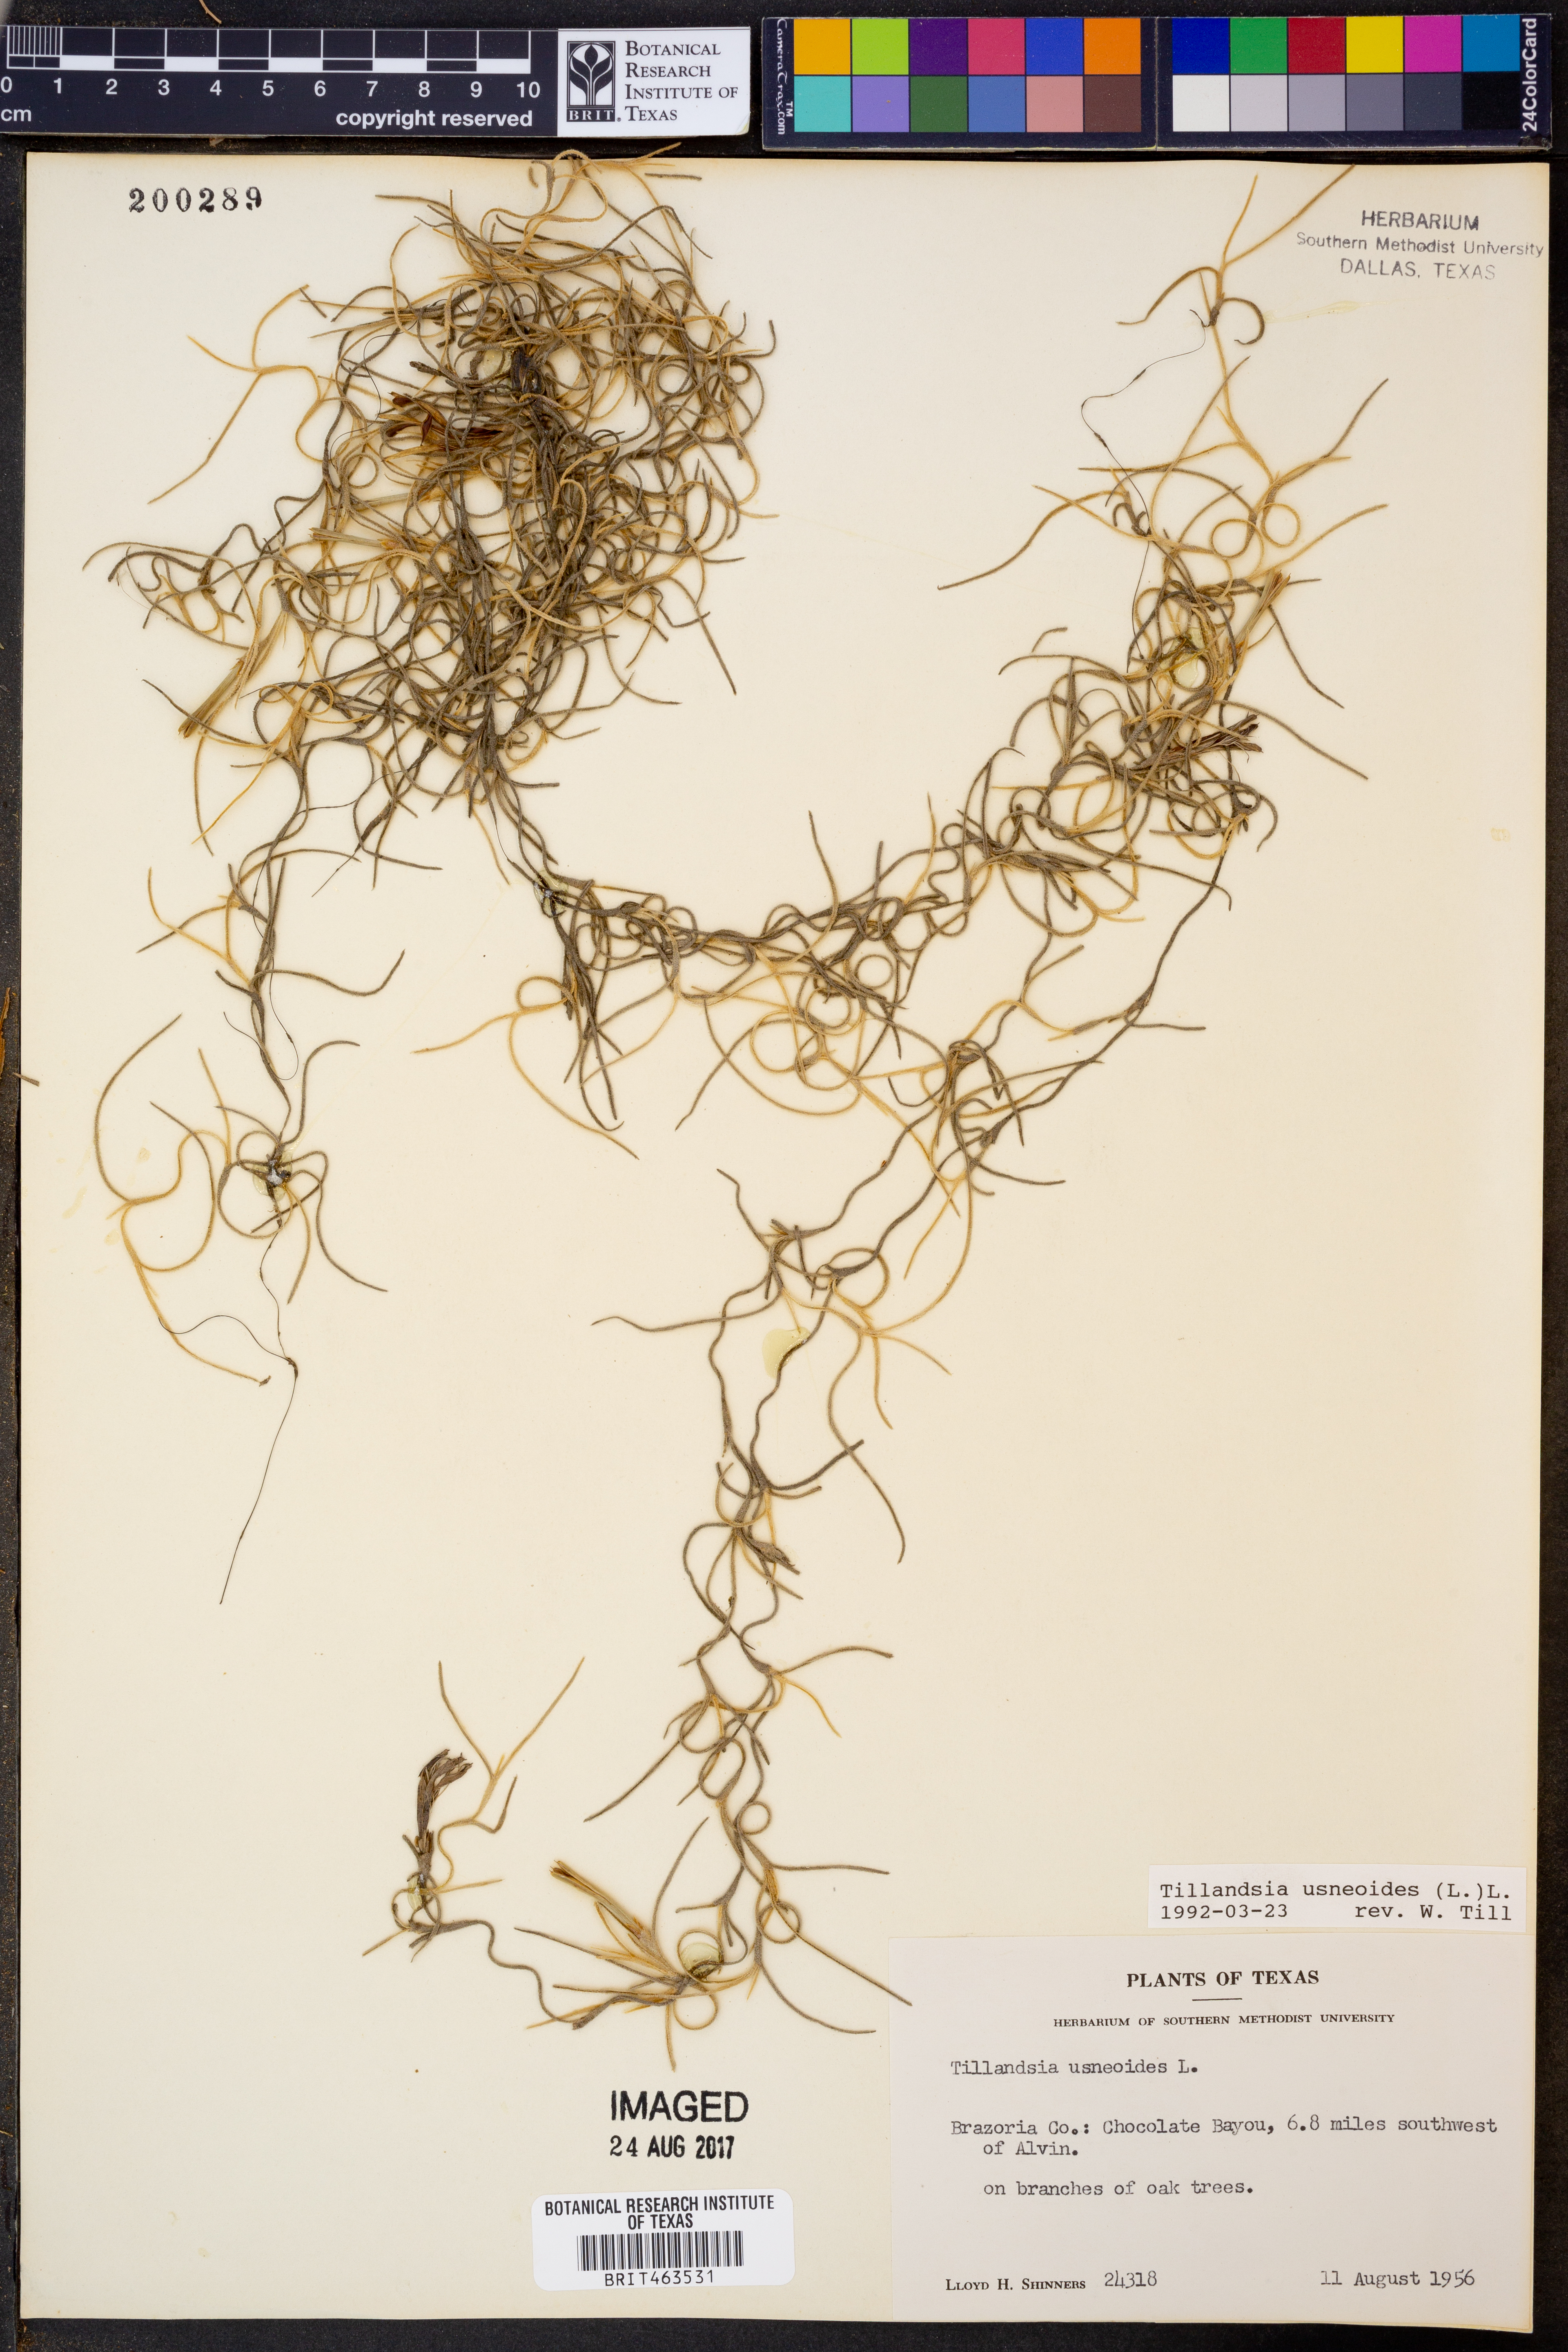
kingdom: Plantae
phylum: Tracheophyta
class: Liliopsida
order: Poales
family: Bromeliaceae
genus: Tillandsia
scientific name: Tillandsia usneoides
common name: Spanish moss
